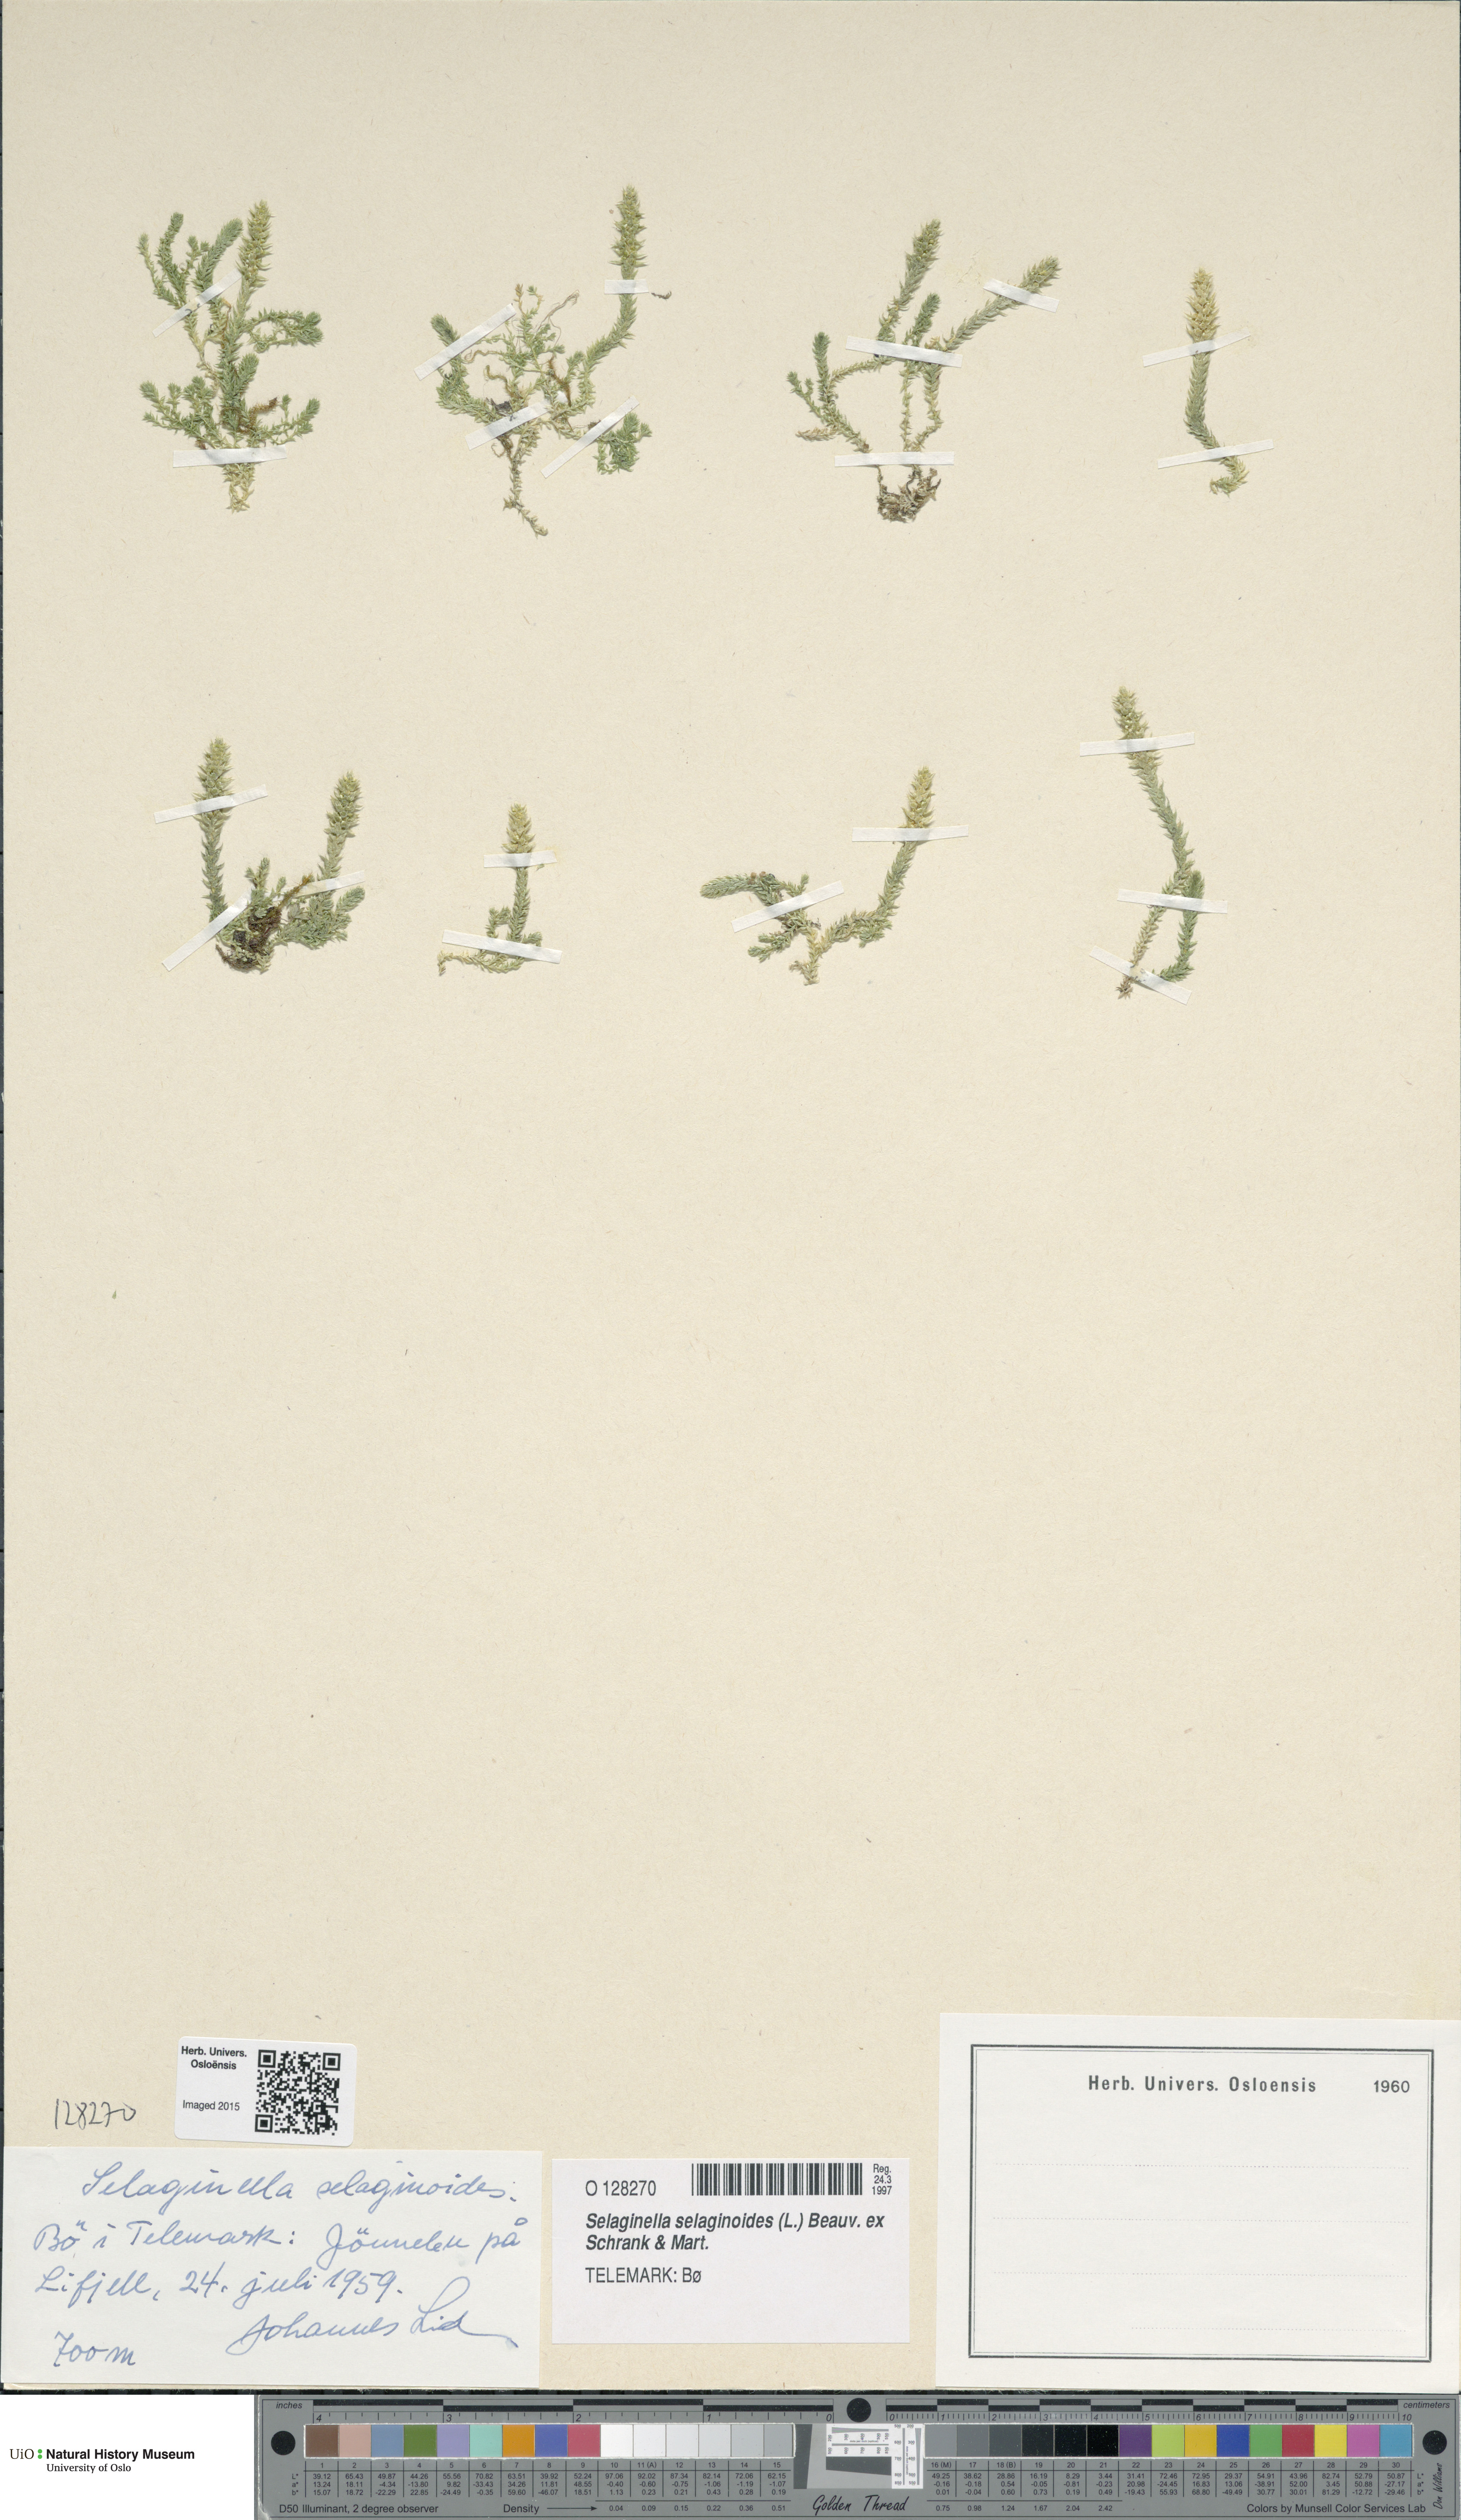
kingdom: Plantae
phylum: Tracheophyta
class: Lycopodiopsida
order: Selaginellales
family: Selaginellaceae
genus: Selaginella
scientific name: Selaginella selaginoides
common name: Prickly mountain-moss
